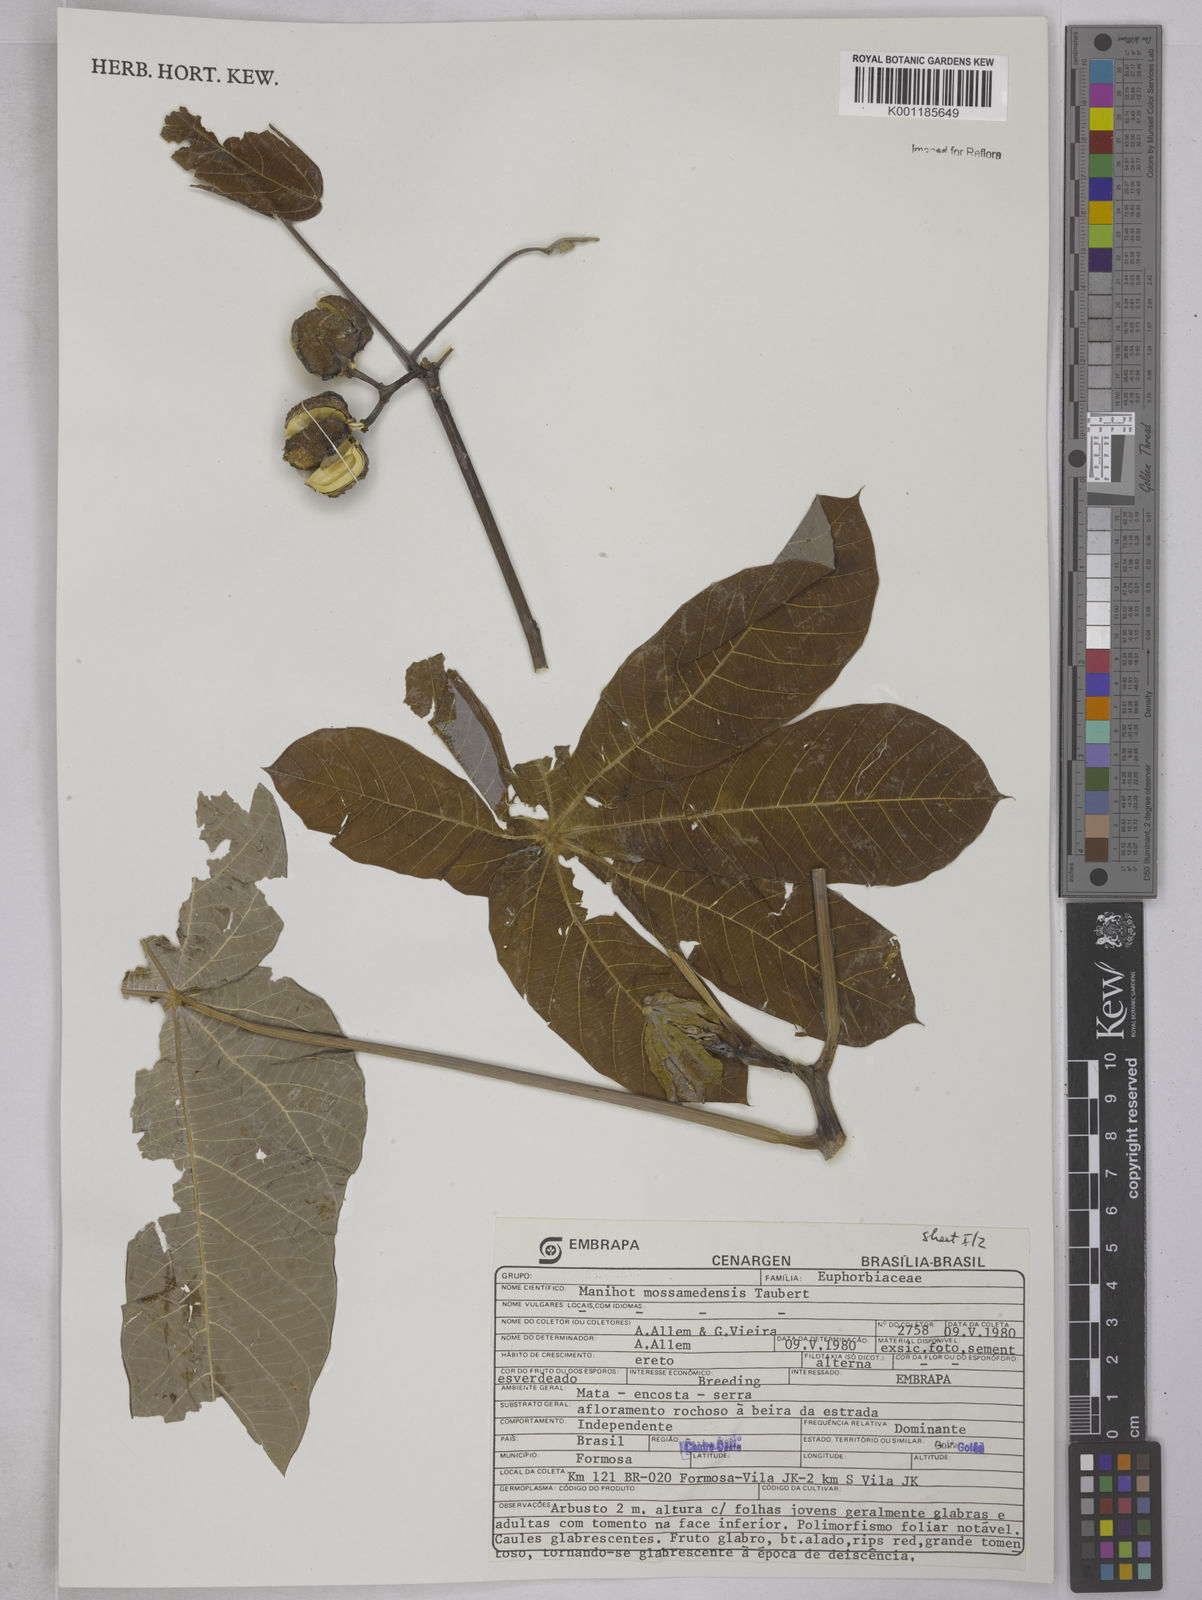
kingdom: Plantae
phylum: Tracheophyta
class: Magnoliopsida
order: Malpighiales
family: Euphorbiaceae
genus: Manihot
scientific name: Manihot mossamedensis
